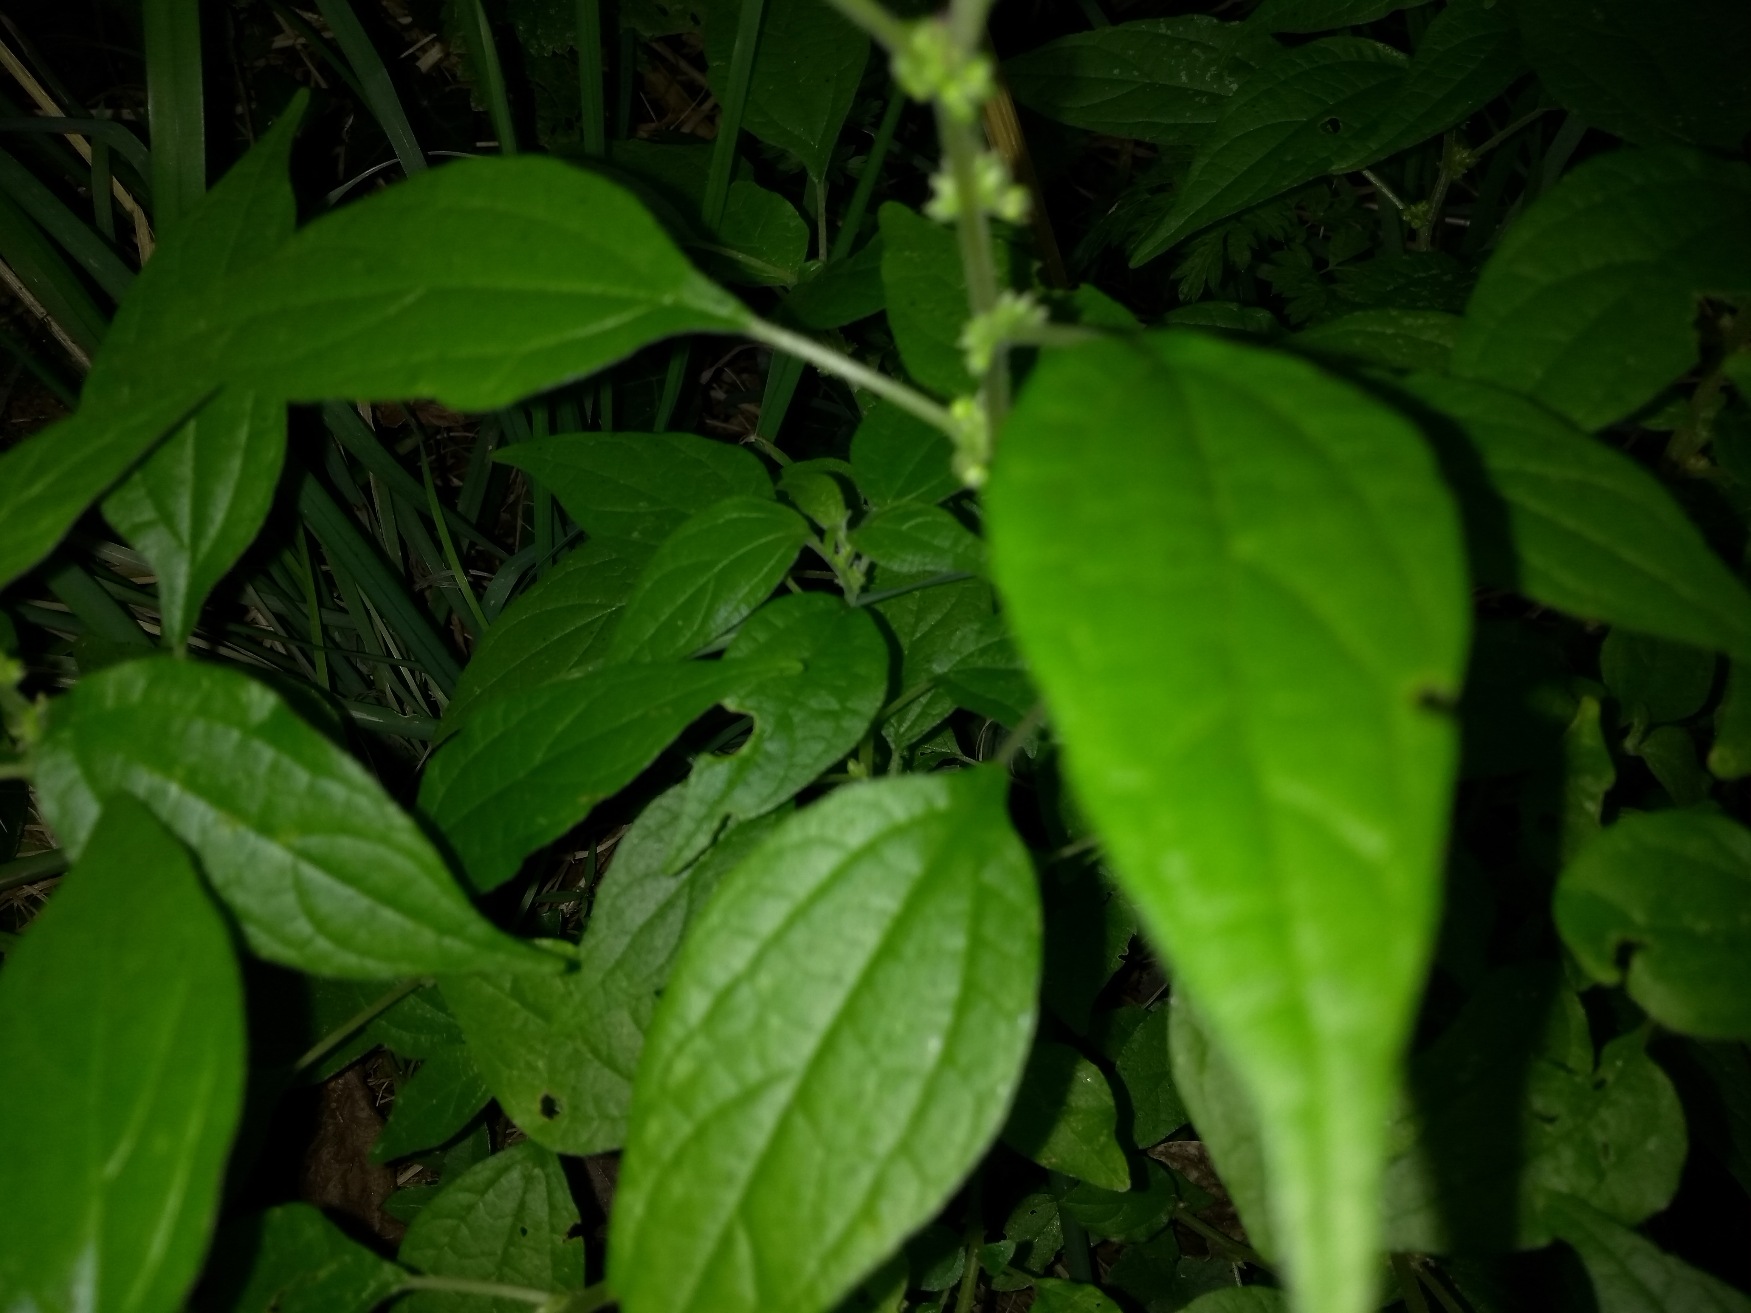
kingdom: Plantae
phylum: Tracheophyta
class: Magnoliopsida
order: Rosales
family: Urticaceae
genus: Parietaria
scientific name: Parietaria officinalis
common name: Almindelig springknap
